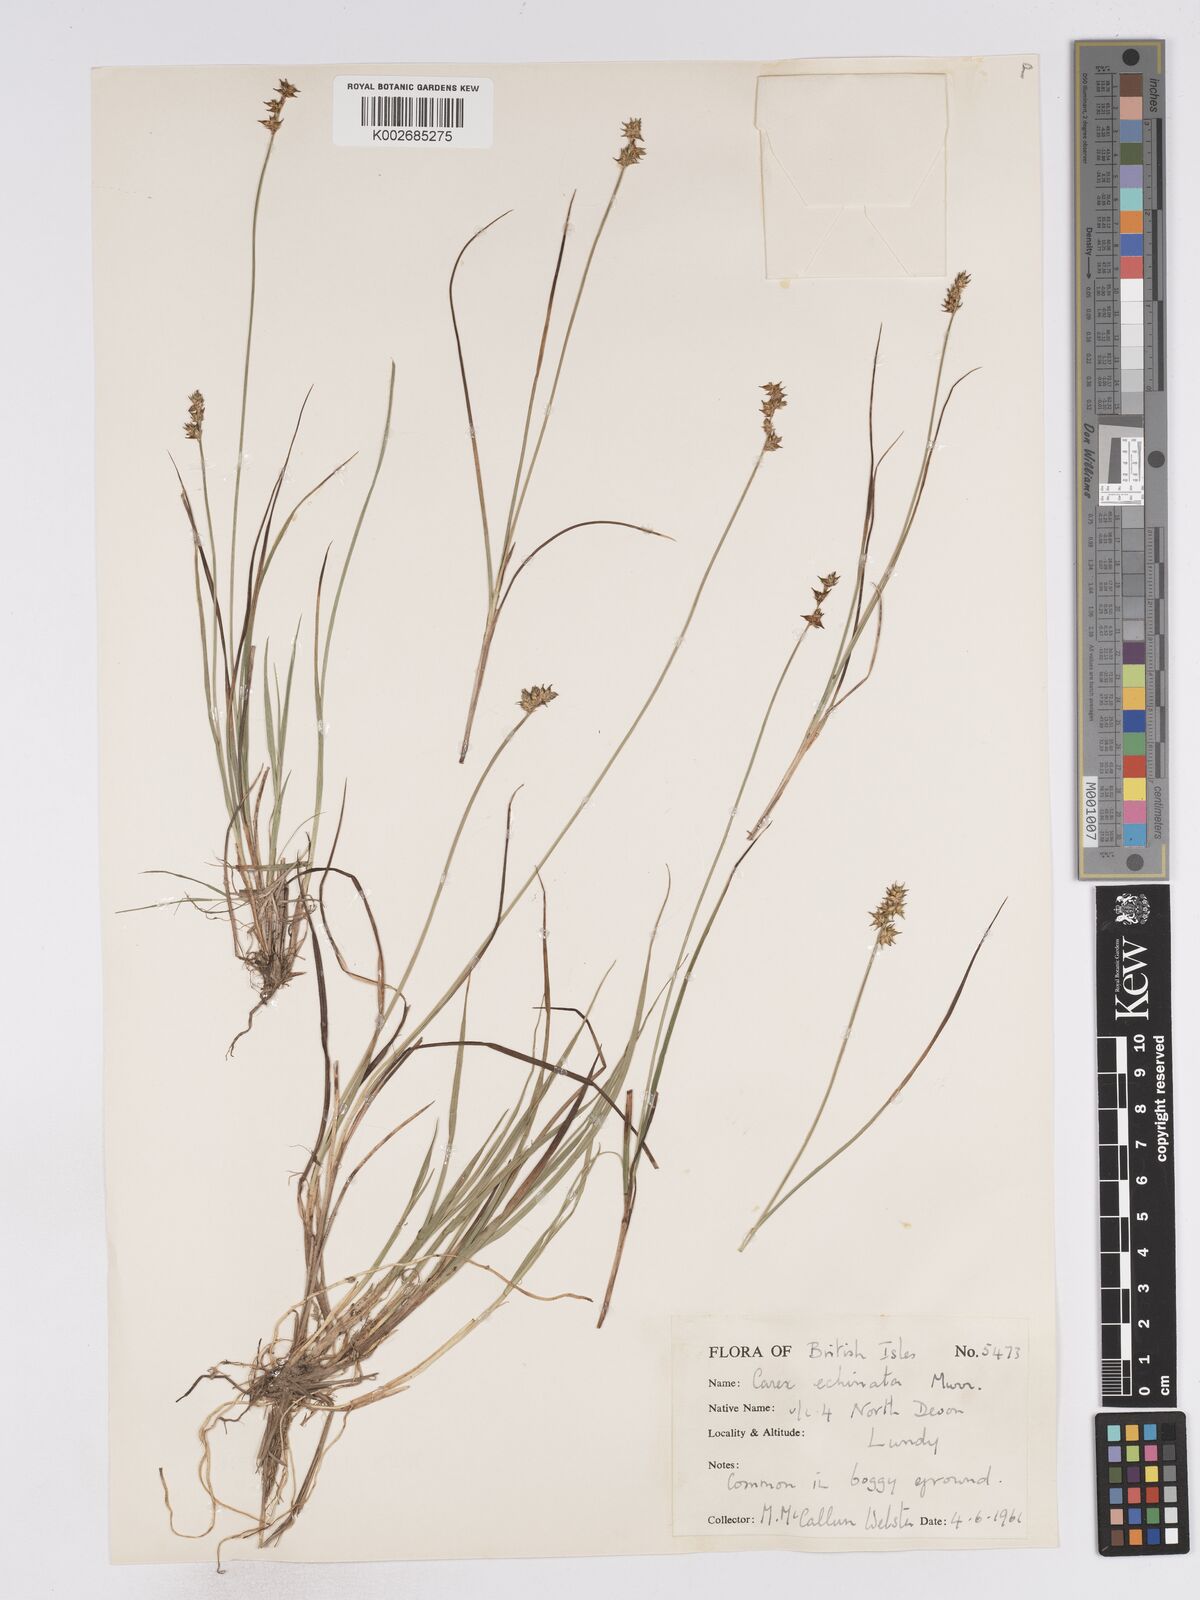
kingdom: Plantae
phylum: Tracheophyta
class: Liliopsida
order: Poales
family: Cyperaceae
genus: Carex
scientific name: Carex echinata
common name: Star sedge
